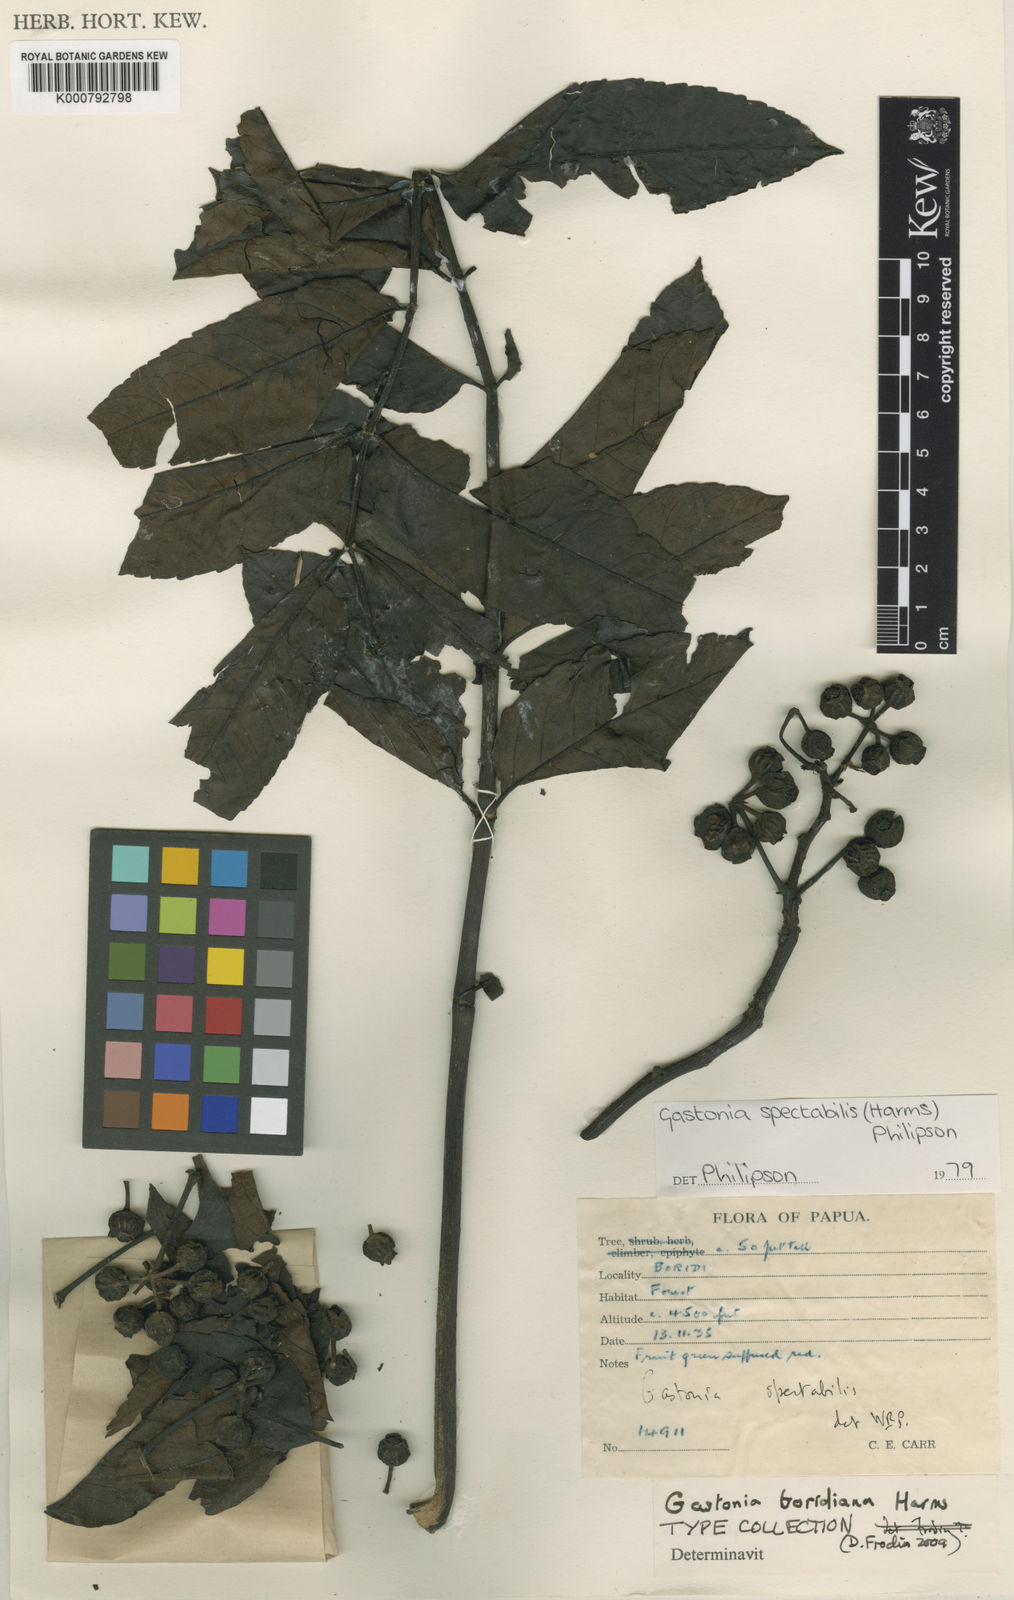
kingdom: Plantae
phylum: Tracheophyta
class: Magnoliopsida
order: Apiales
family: Araliaceae
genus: Polyscias
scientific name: Polyscias spectabilis
